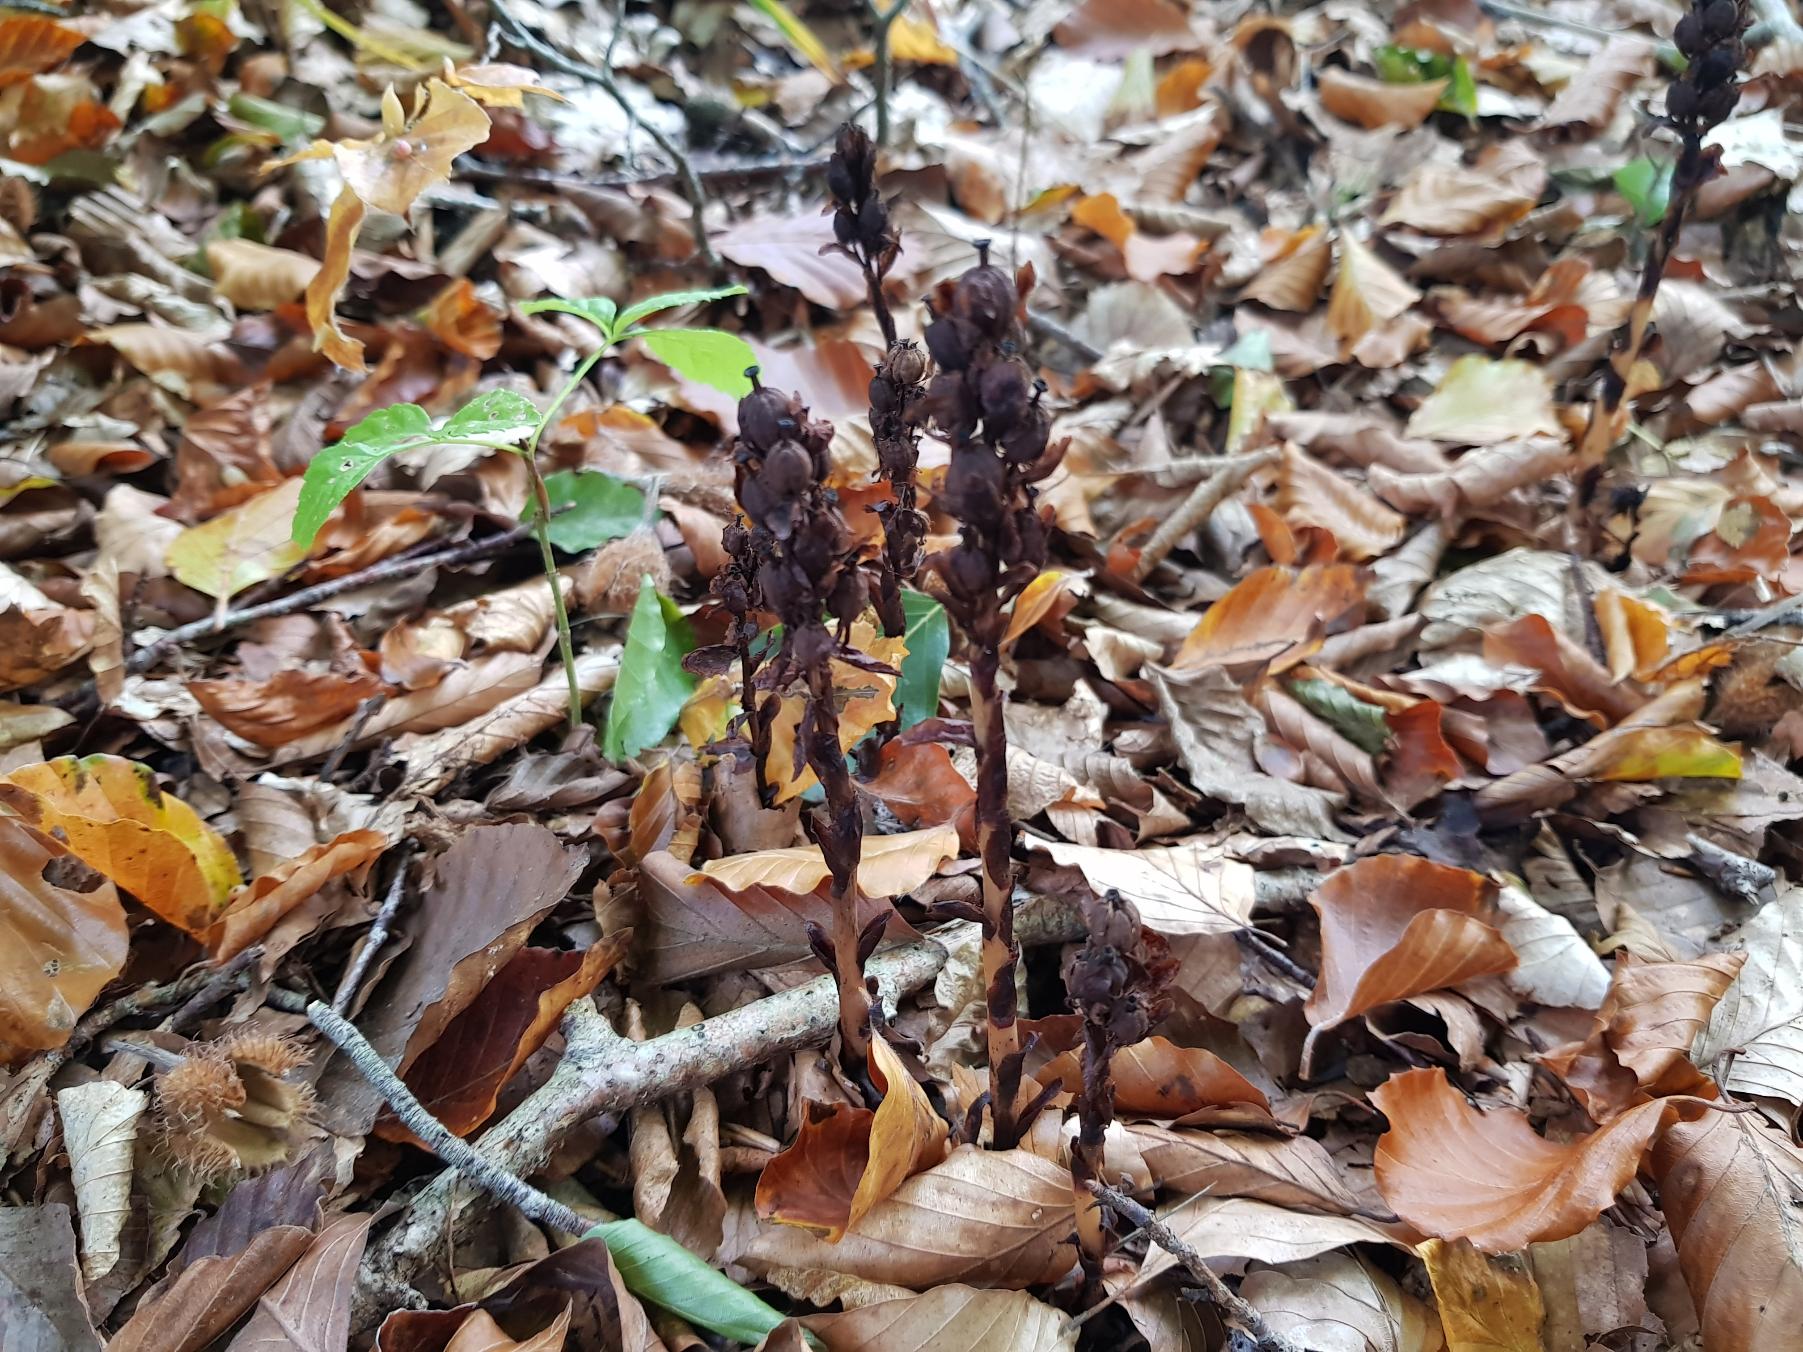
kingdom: Plantae
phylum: Tracheophyta
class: Magnoliopsida
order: Ericales
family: Ericaceae
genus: Hypopitys
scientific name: Hypopitys monotropa
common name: Snylterod
